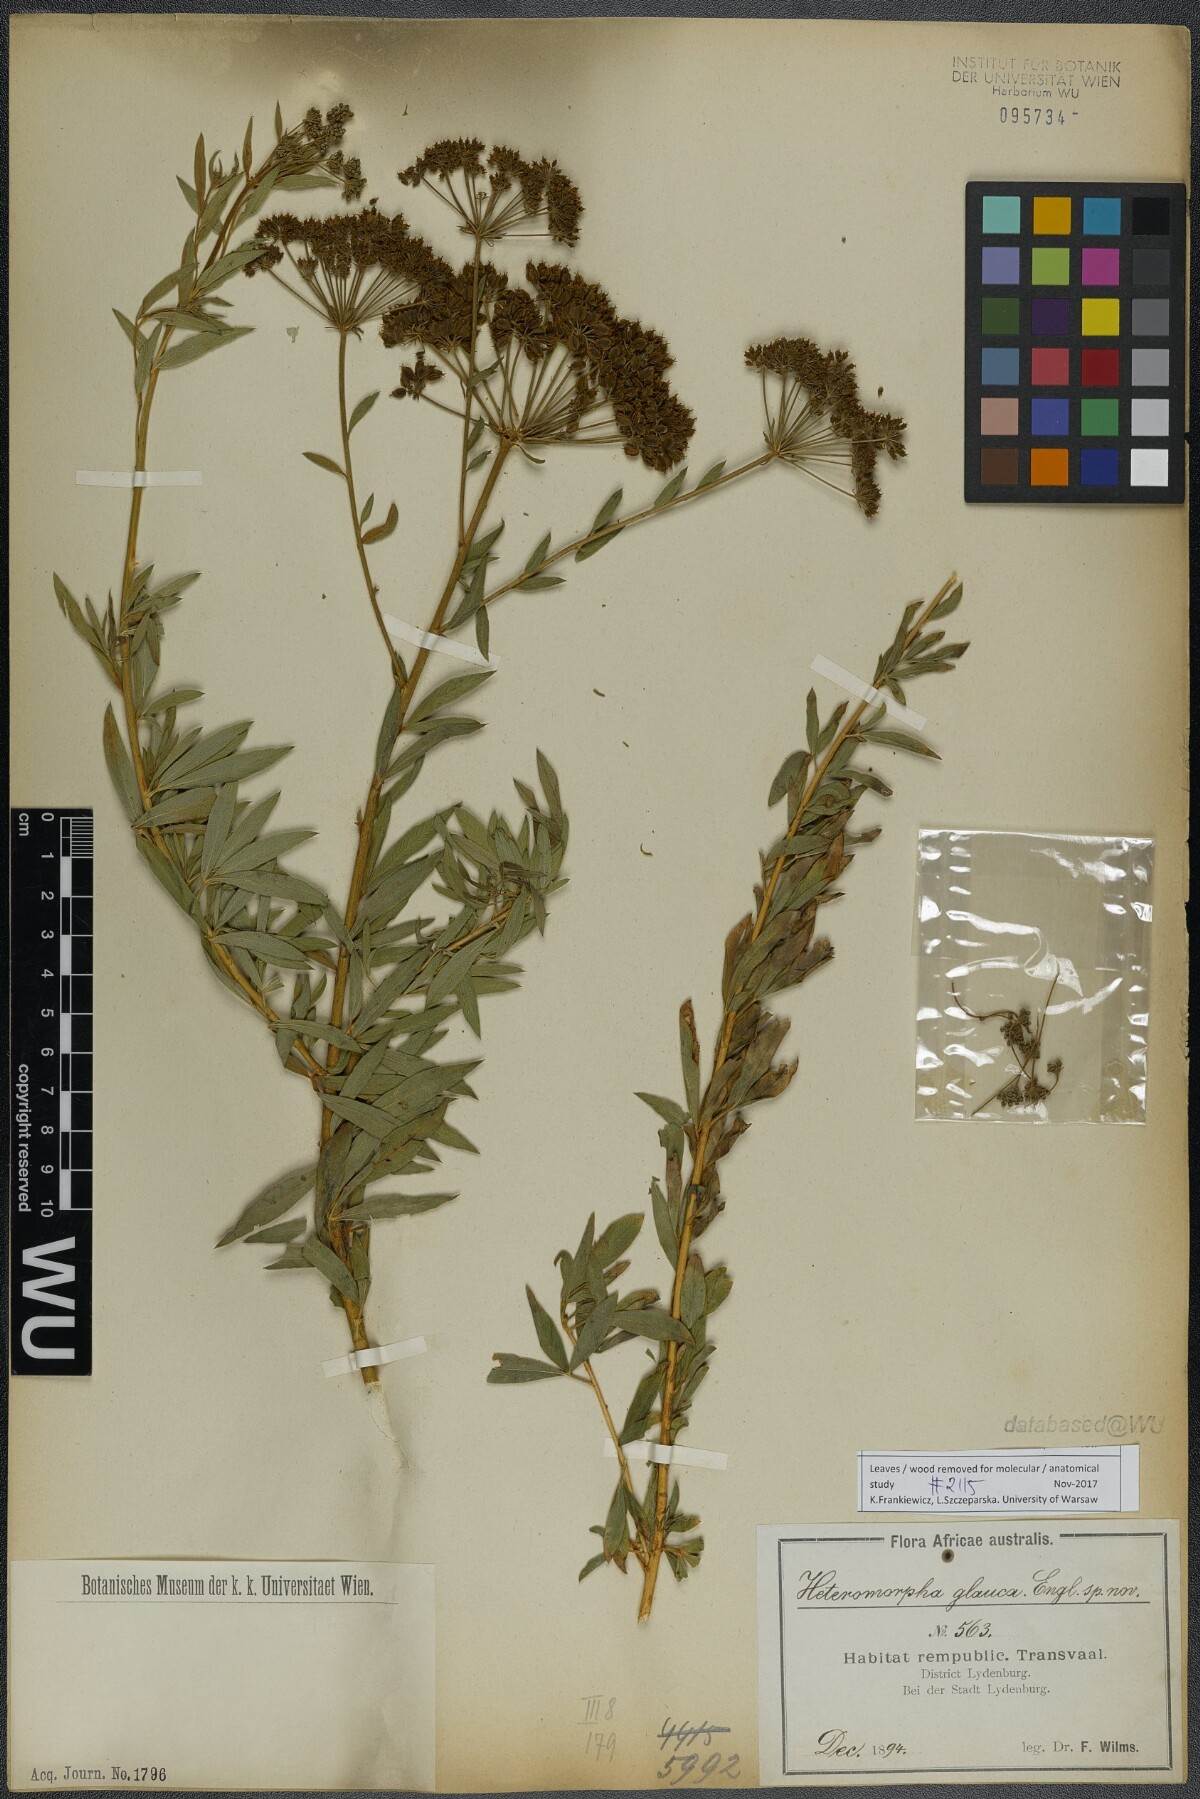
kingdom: Plantae
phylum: Tracheophyta
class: Magnoliopsida
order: Apiales
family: Apiaceae
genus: Heteromorpha
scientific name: Heteromorpha involucrata
